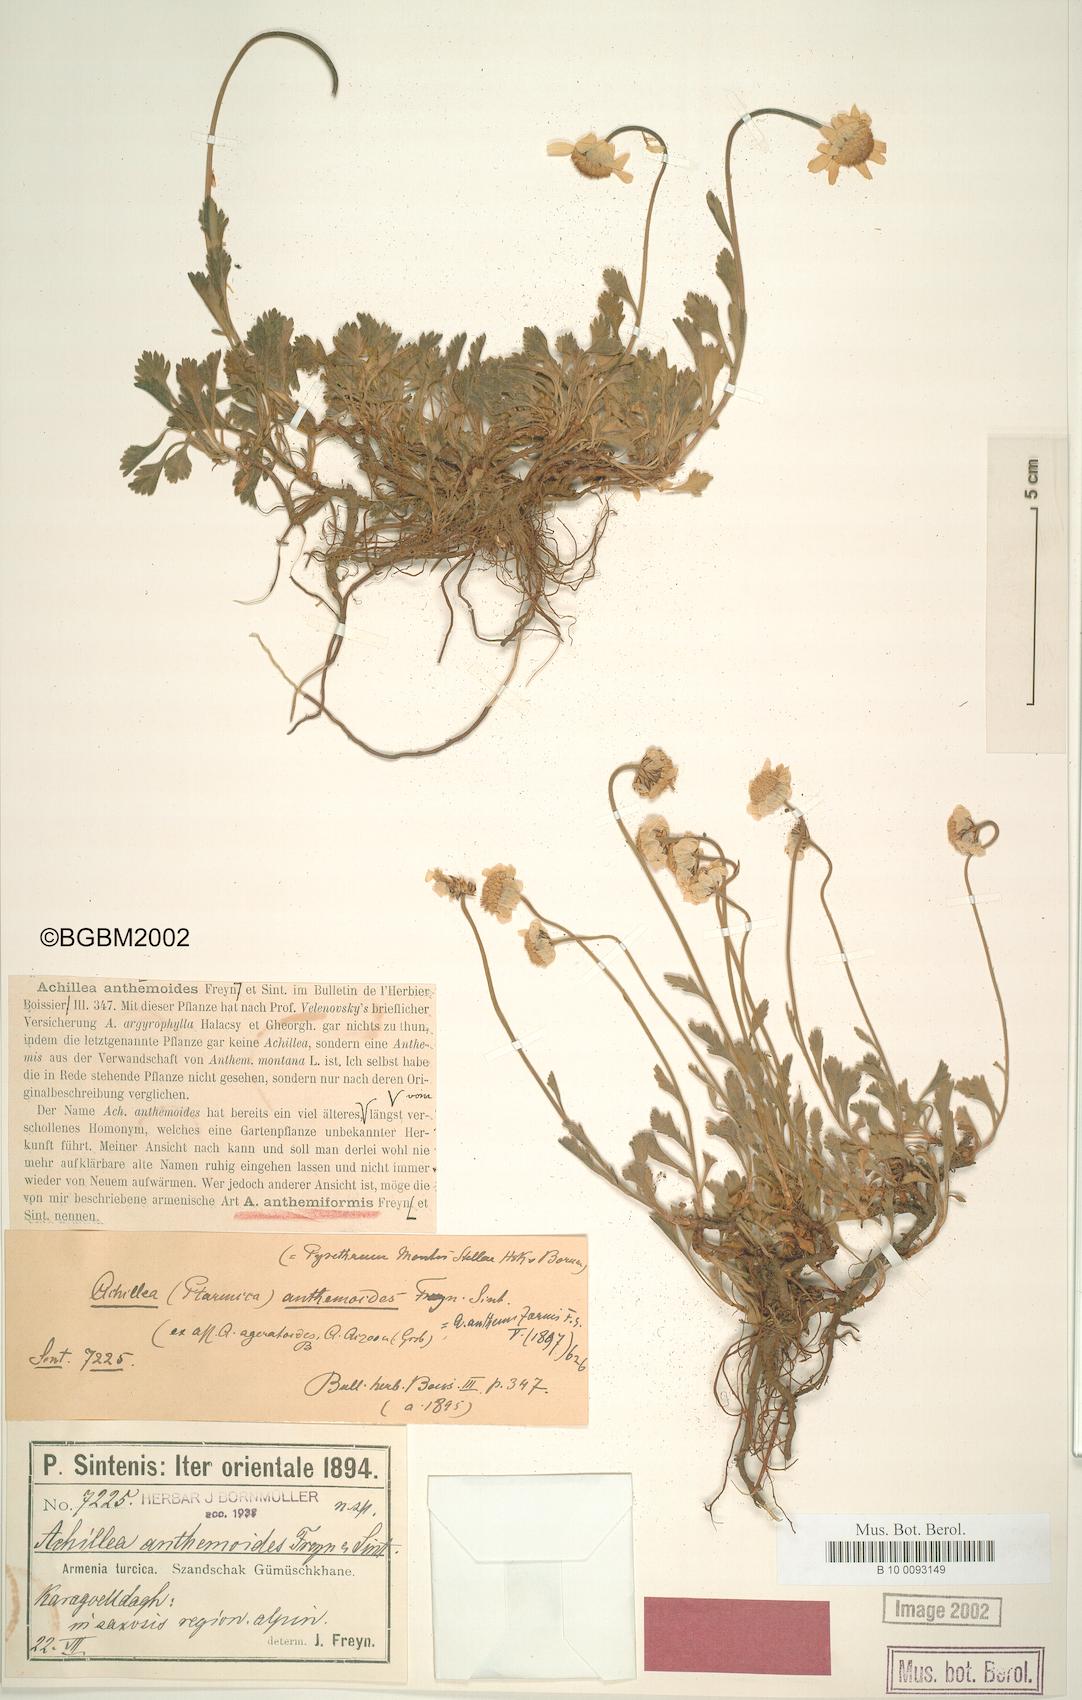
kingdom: Plantae
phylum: Tracheophyta
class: Magnoliopsida
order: Asterales
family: Asteraceae
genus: Anthemis
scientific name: Anthemis anthemiformis
